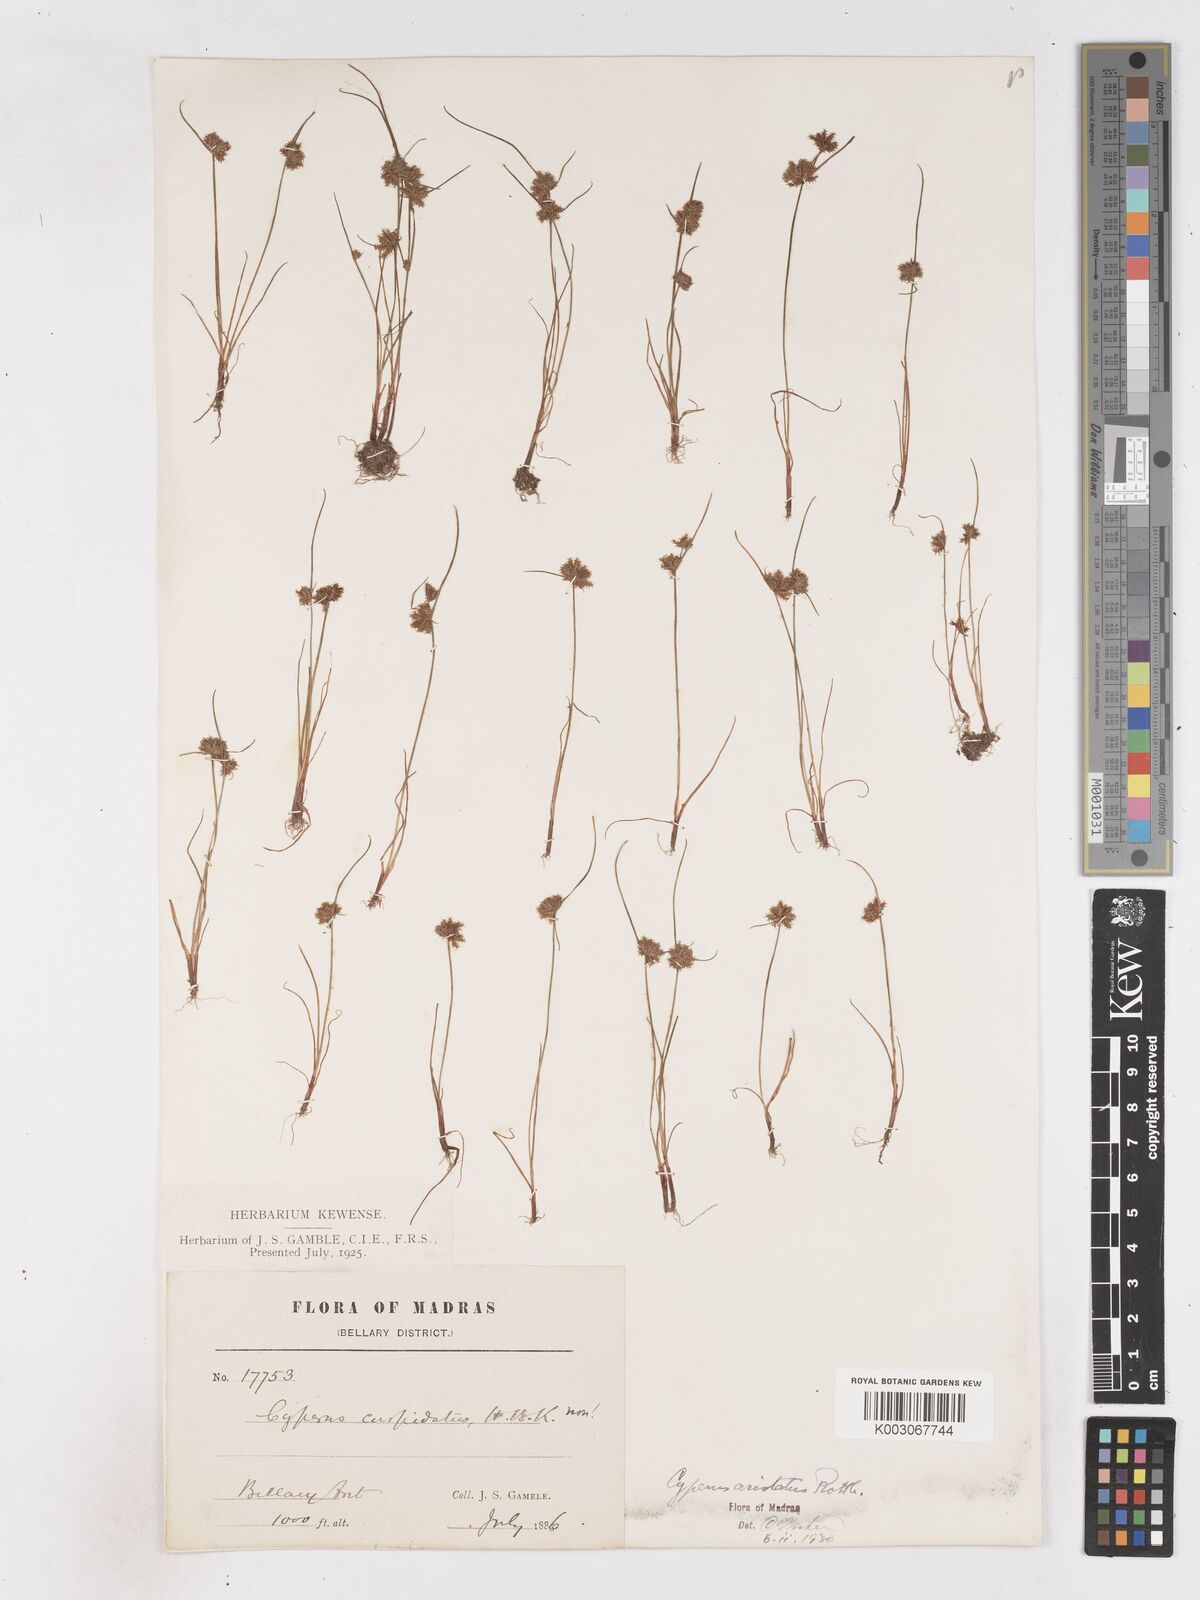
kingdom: Plantae
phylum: Tracheophyta
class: Liliopsida
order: Poales
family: Cyperaceae
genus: Cyperus
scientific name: Cyperus squarrosus
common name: Awned cyperus
